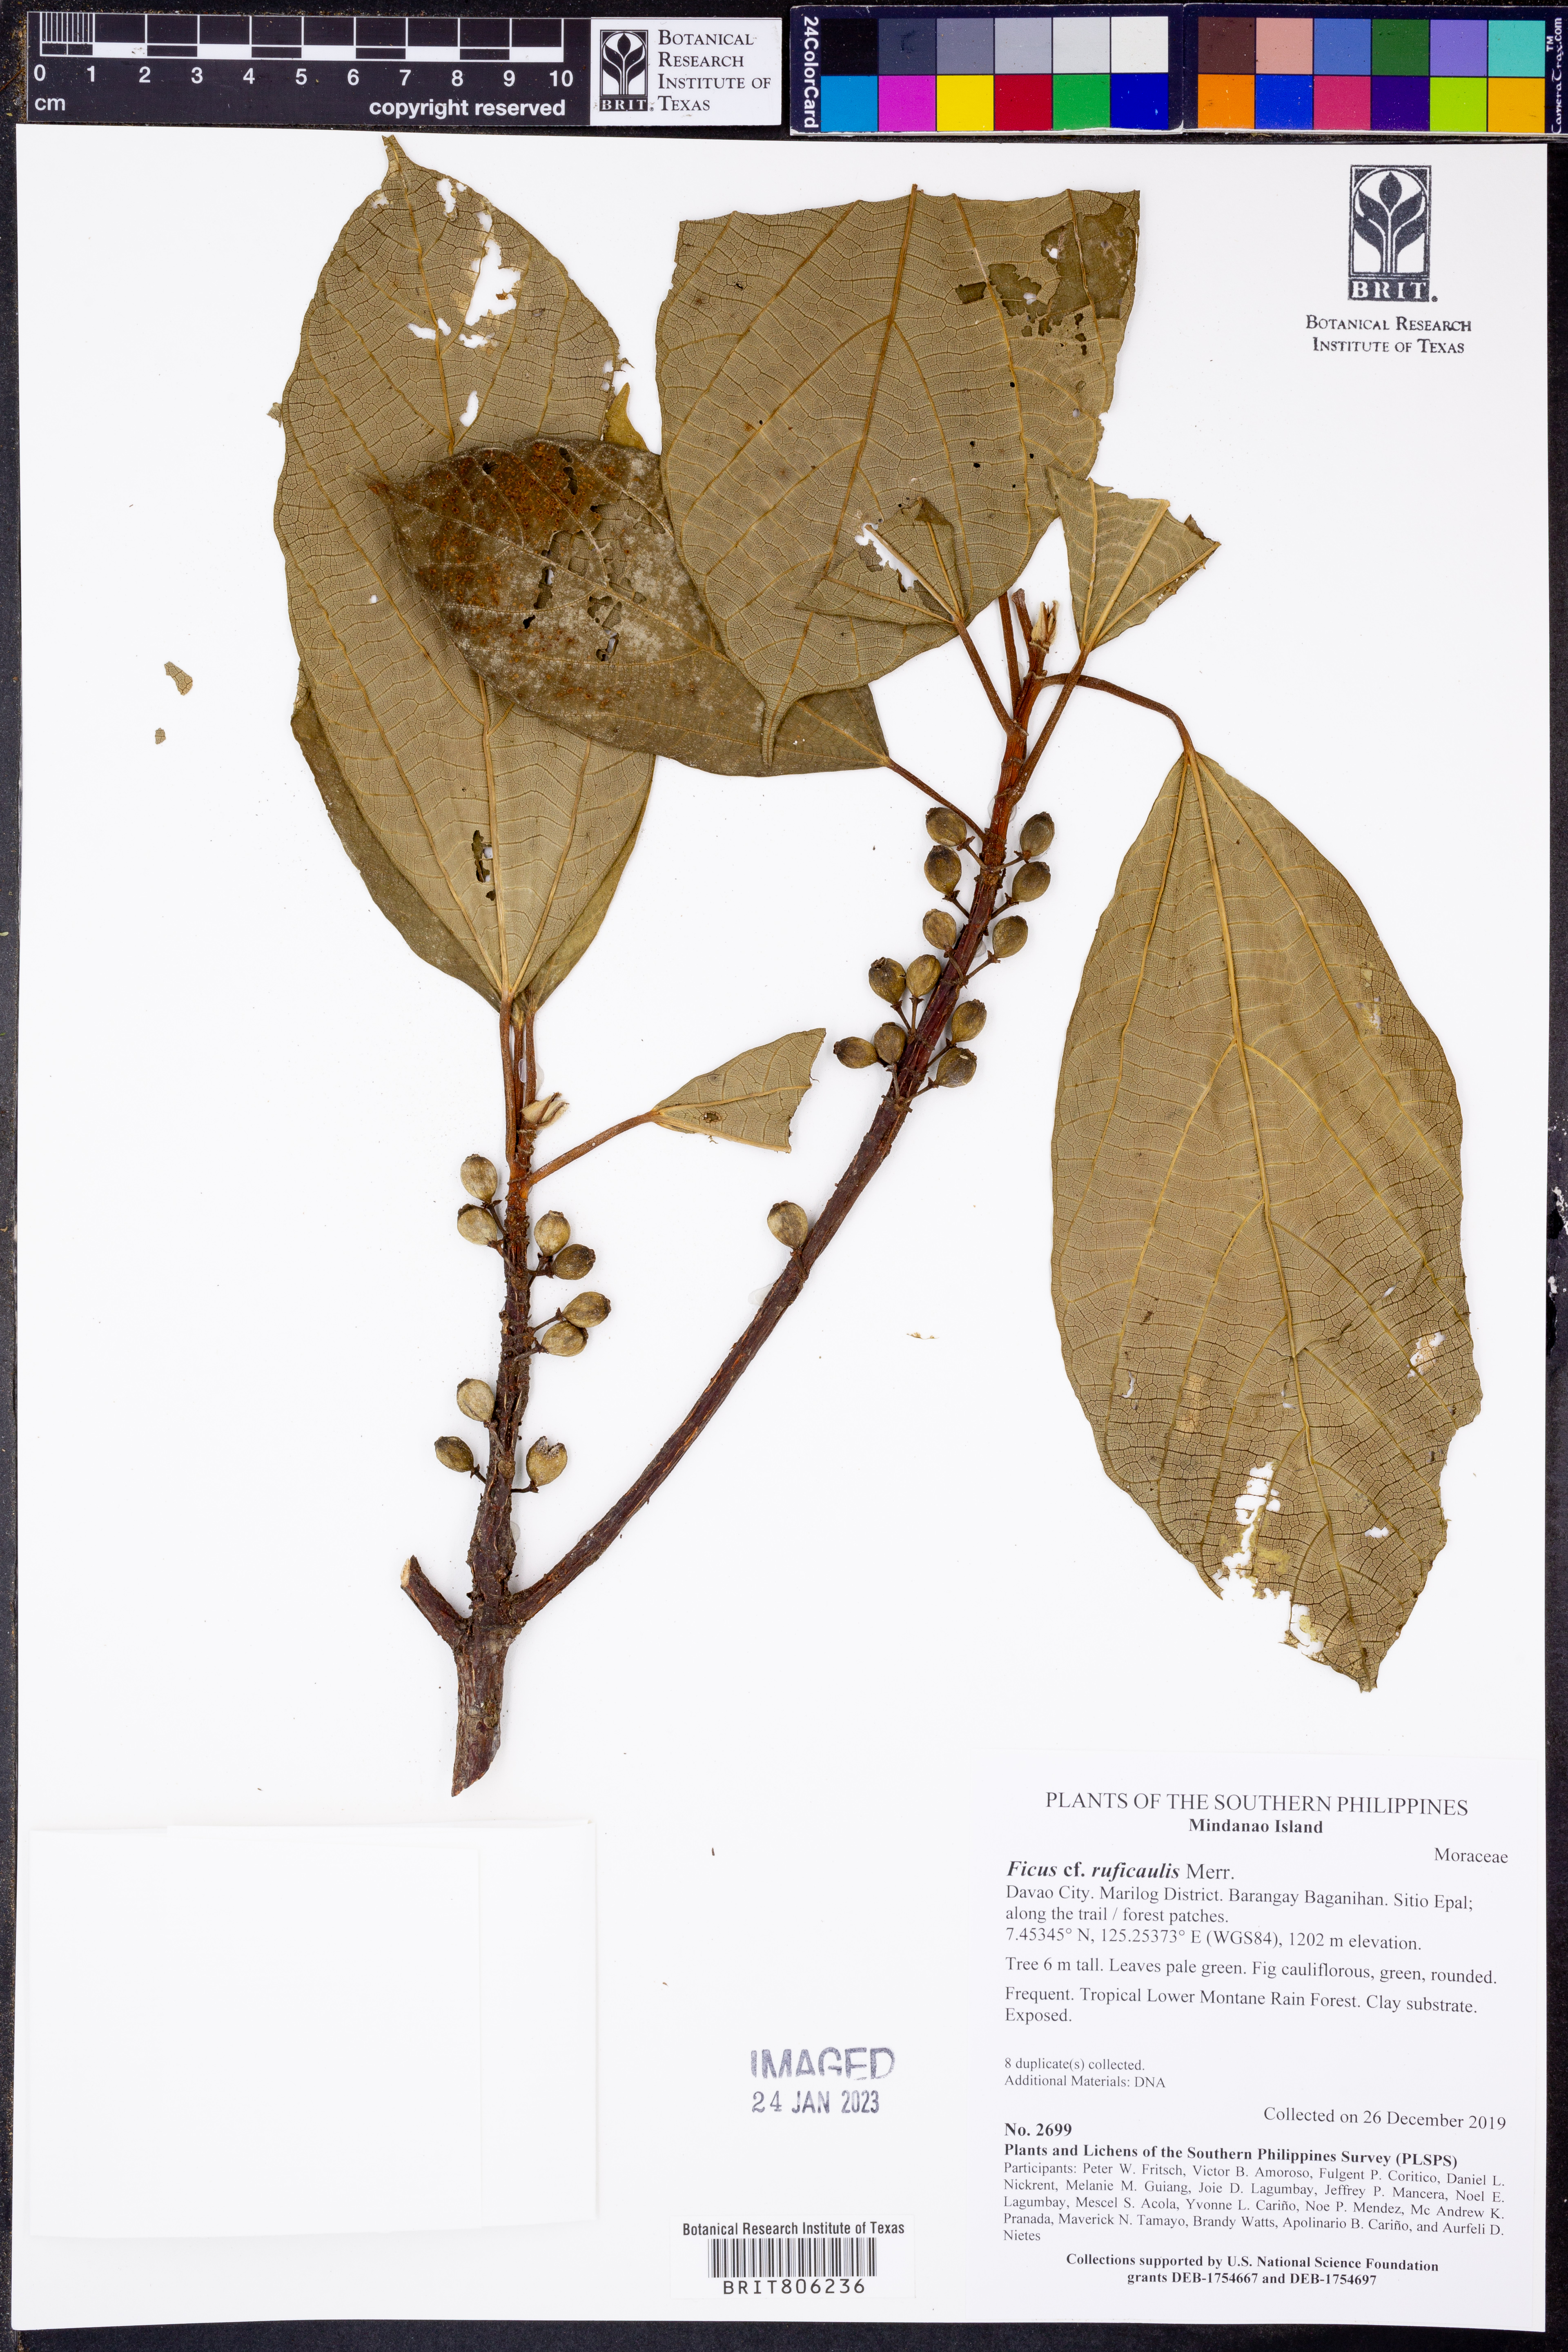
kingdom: Plantae
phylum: Tracheophyta
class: Magnoliopsida
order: Rosales
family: Moraceae
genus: Ficus
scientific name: Ficus ruficaulis
